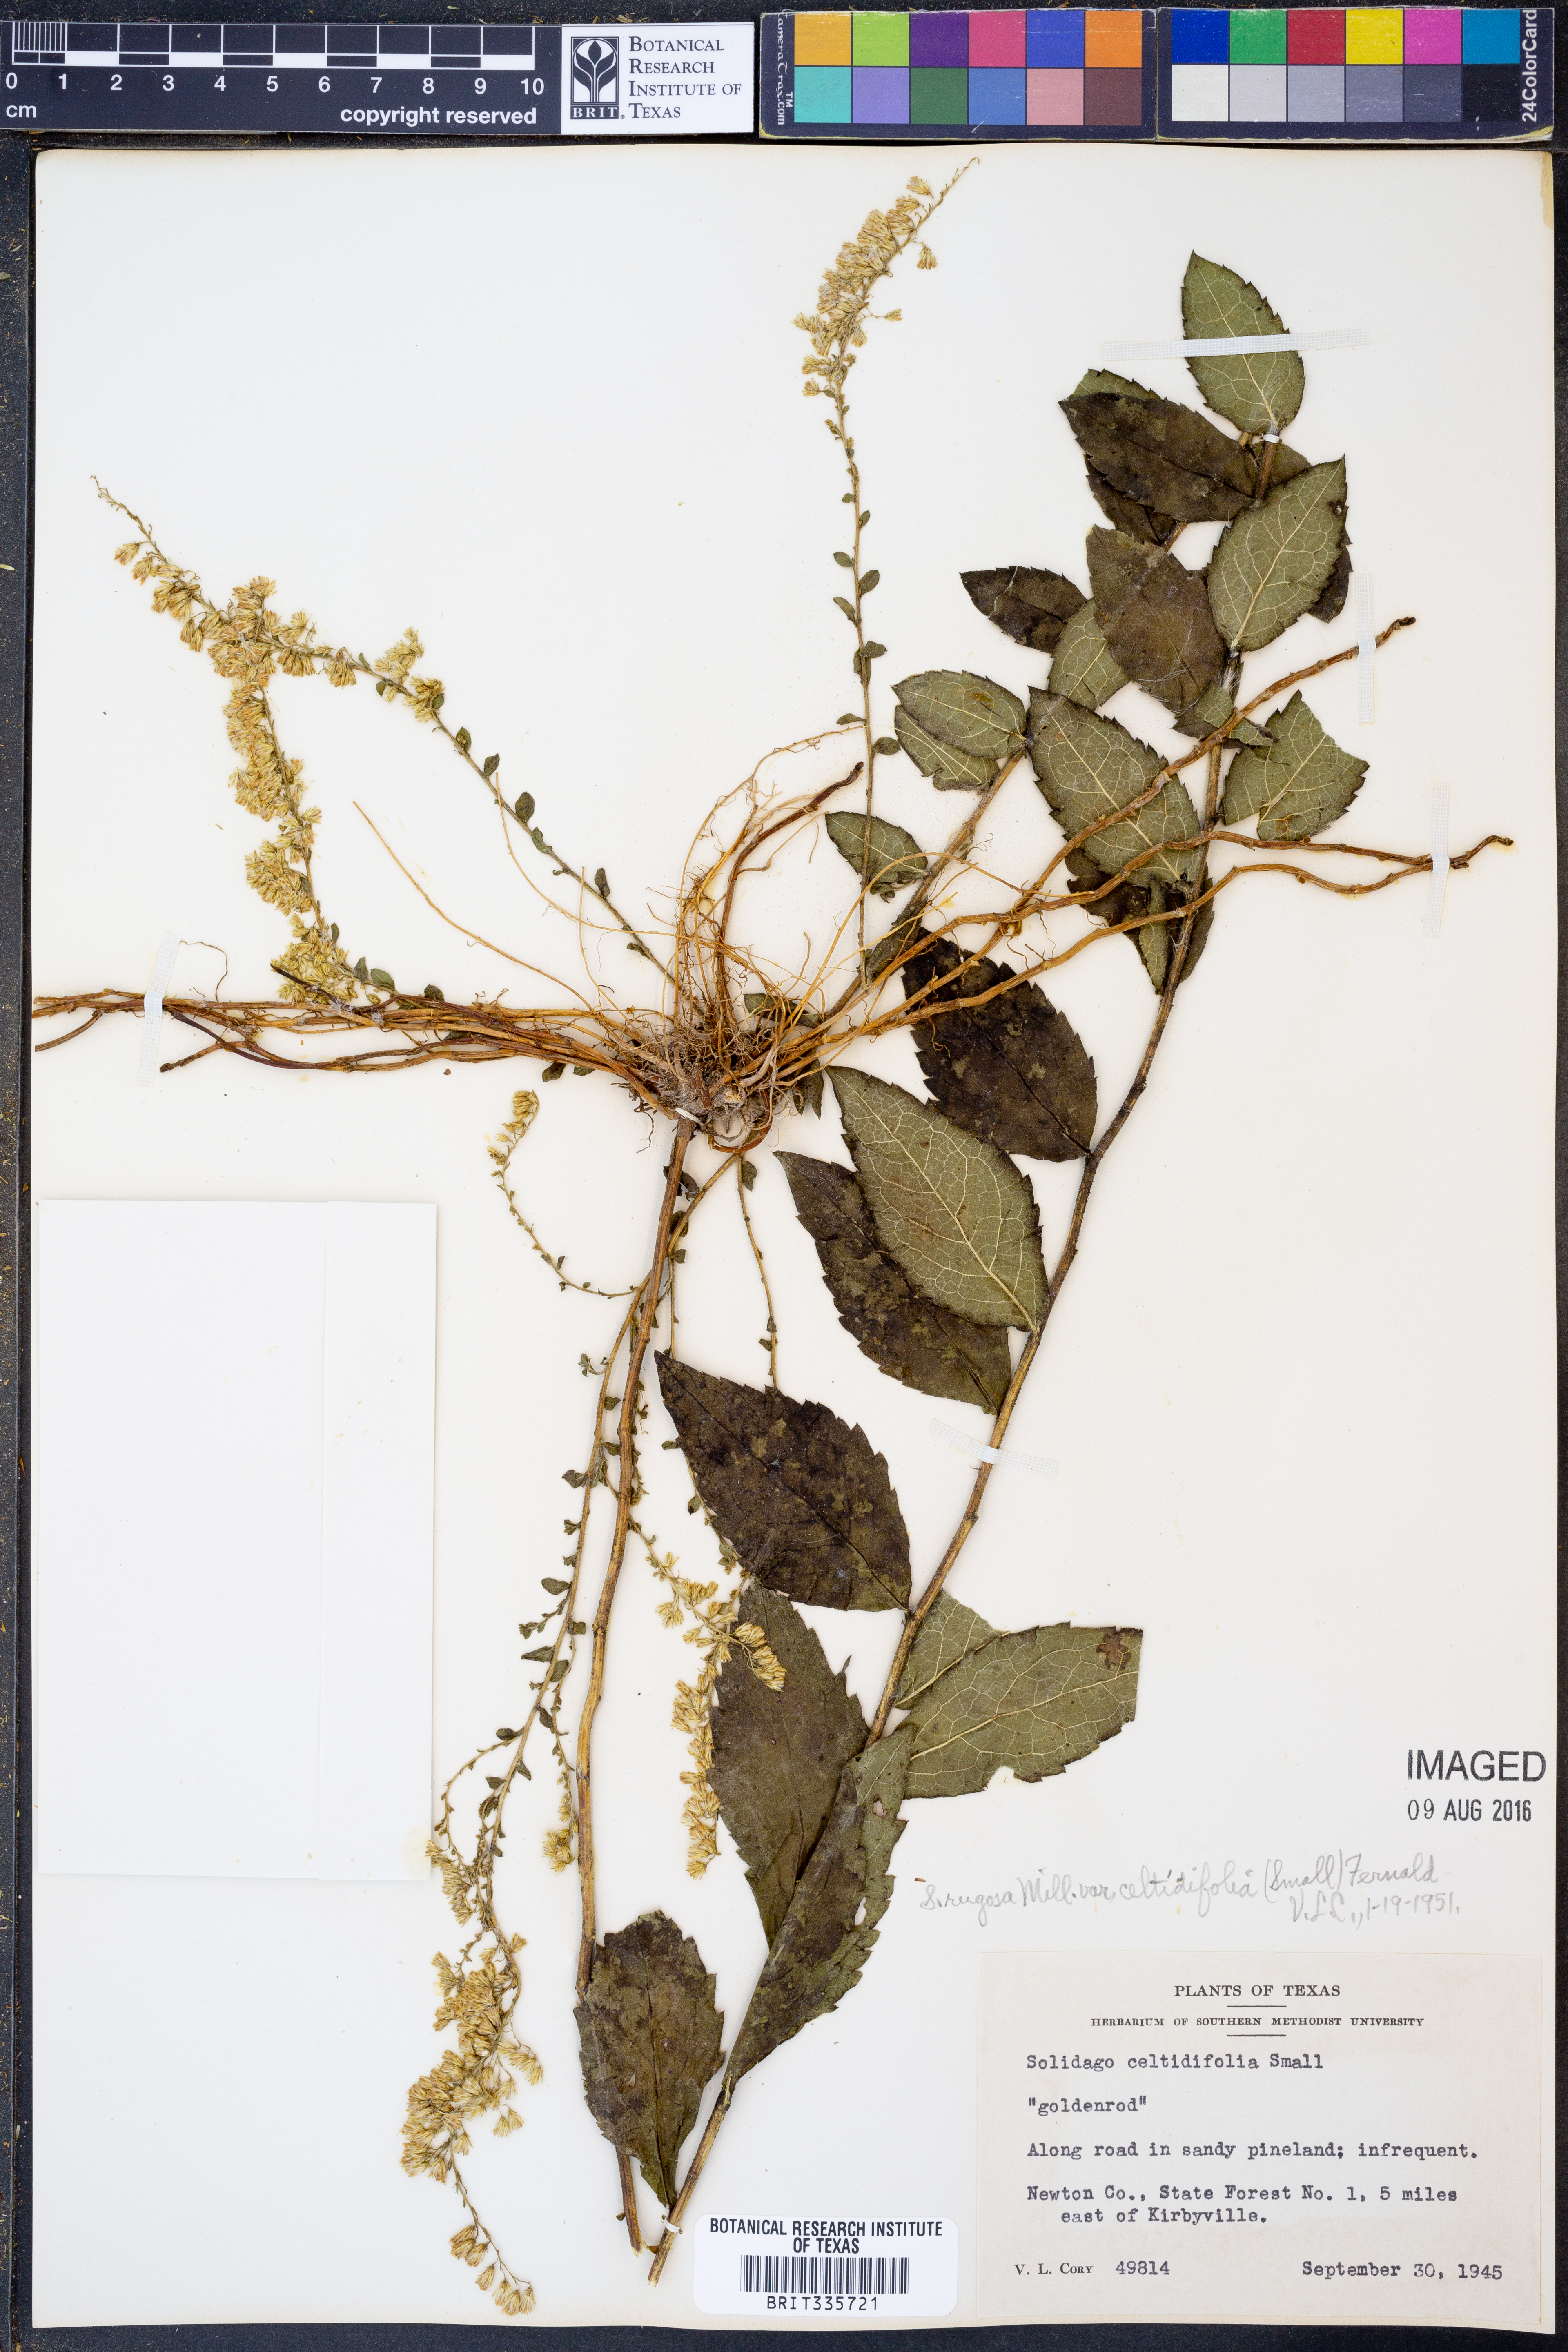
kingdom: Plantae
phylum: Tracheophyta
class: Magnoliopsida
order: Asterales
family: Asteraceae
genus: Solidago
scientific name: Solidago rugosa
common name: Rough-stemmed goldenrod
